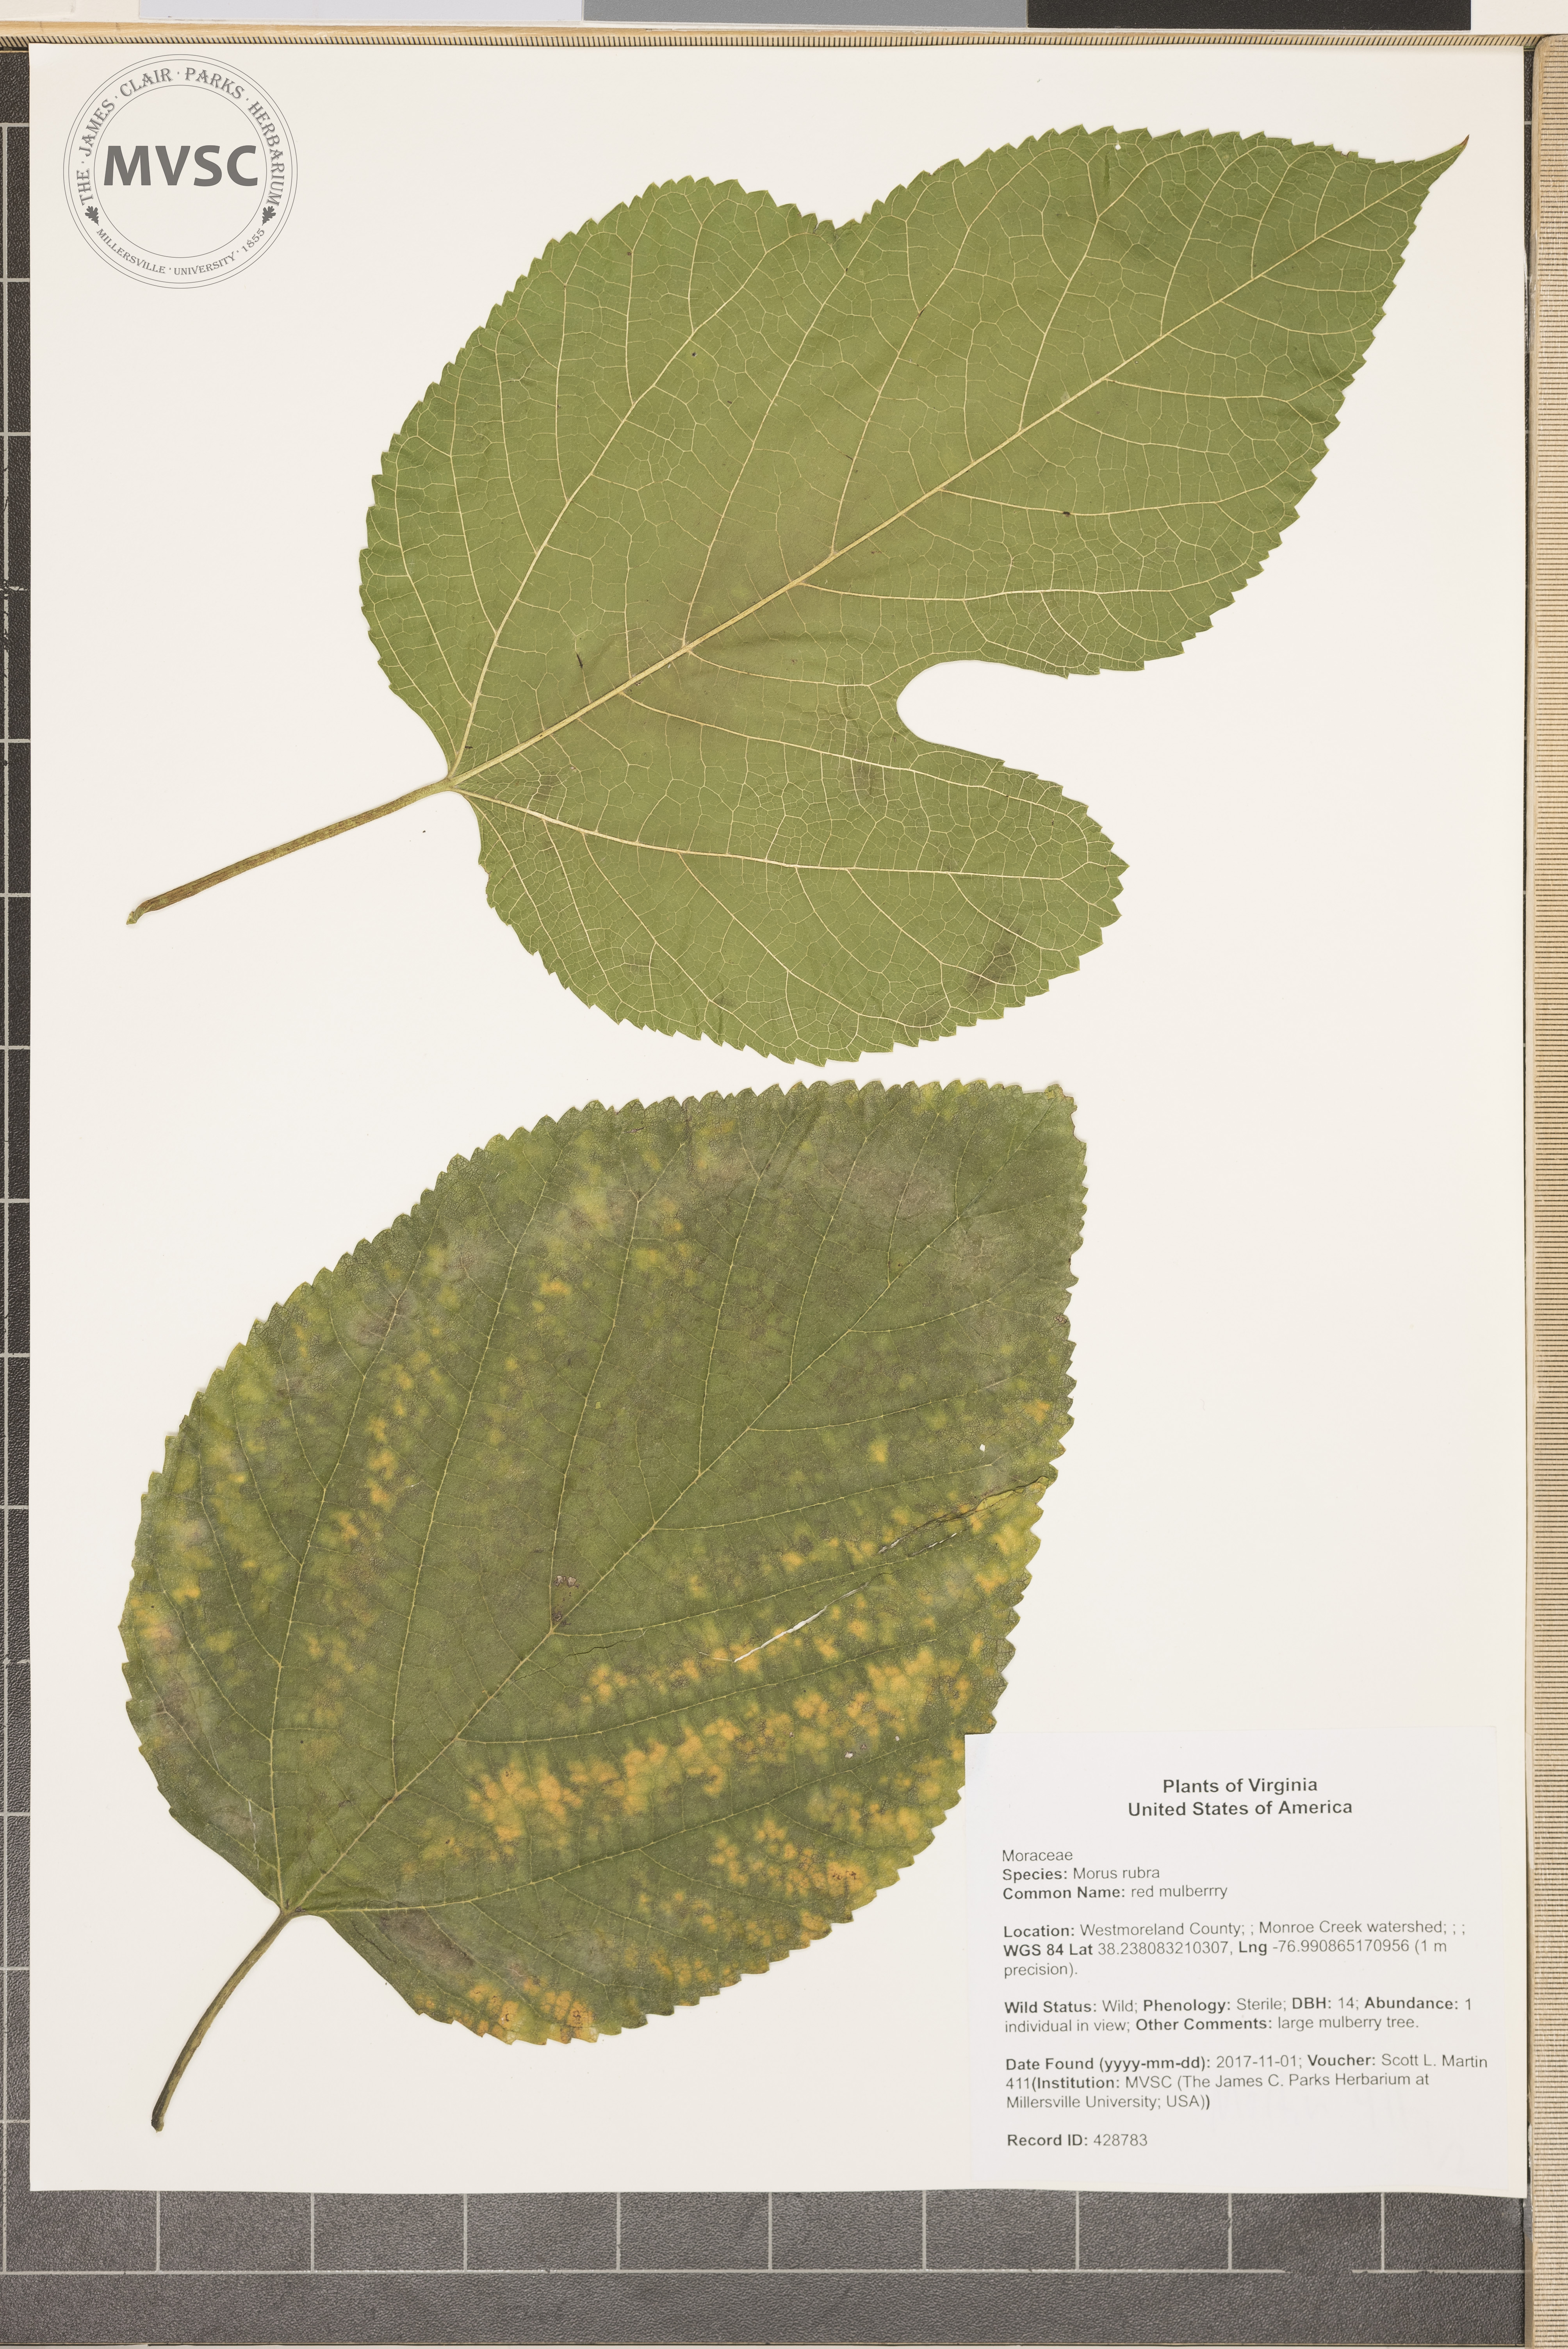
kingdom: Plantae
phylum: Tracheophyta
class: Magnoliopsida
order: Rosales
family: Moraceae
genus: Morus
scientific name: Morus rubra
